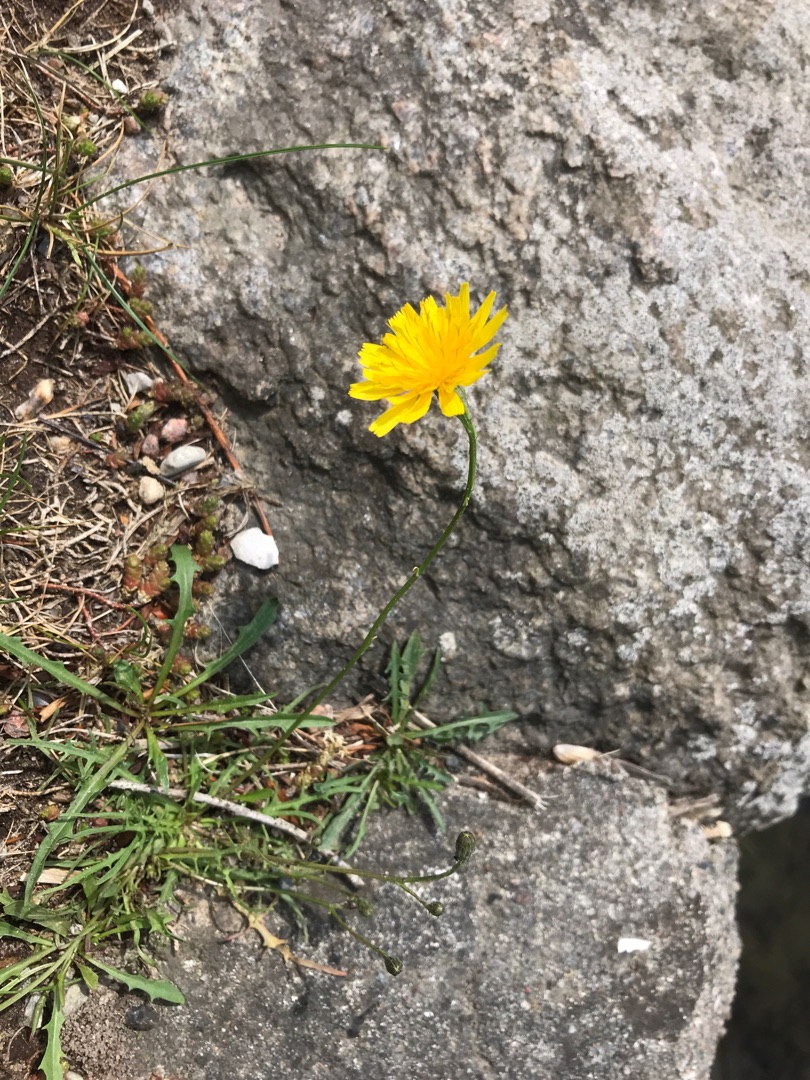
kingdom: Plantae
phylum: Tracheophyta
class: Magnoliopsida
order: Asterales
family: Asteraceae
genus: Scorzoneroides
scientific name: Scorzoneroides autumnalis
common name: Høst-borst
